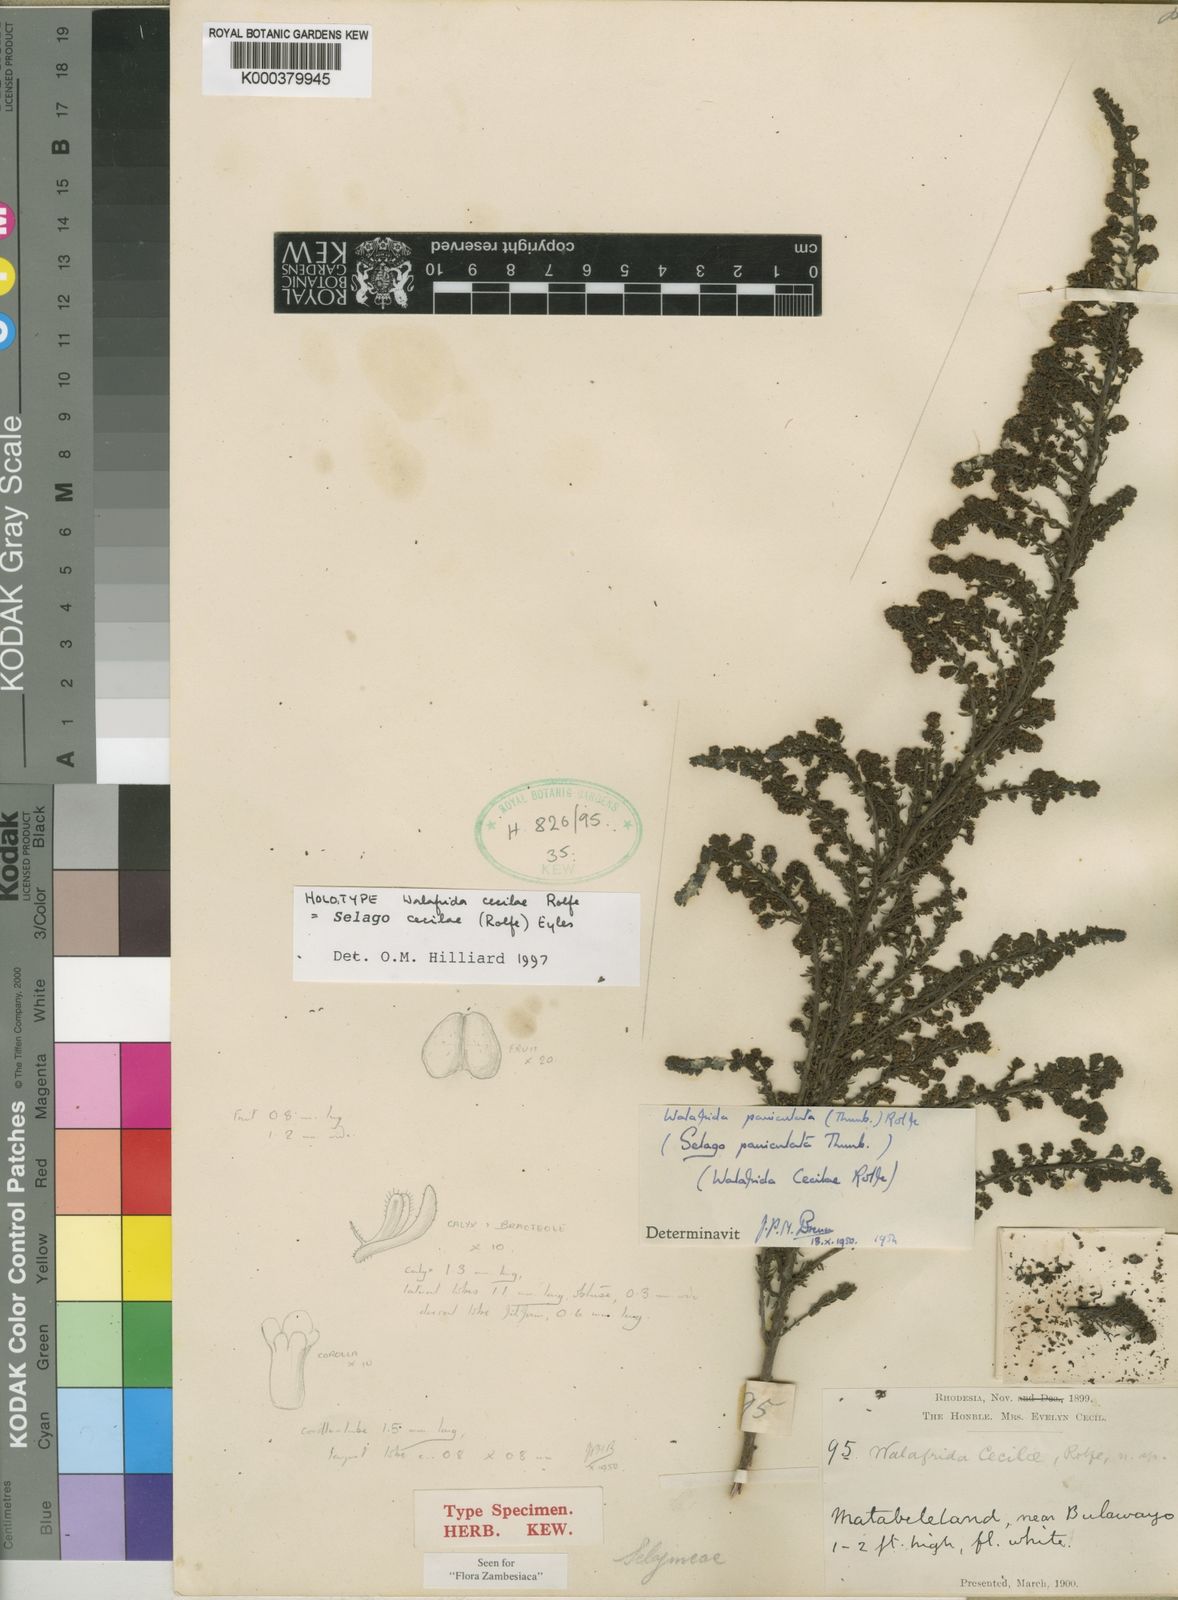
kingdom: Plantae
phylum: Tracheophyta
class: Magnoliopsida
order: Lamiales
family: Scrophulariaceae
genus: Selago
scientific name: Selago cecilae
